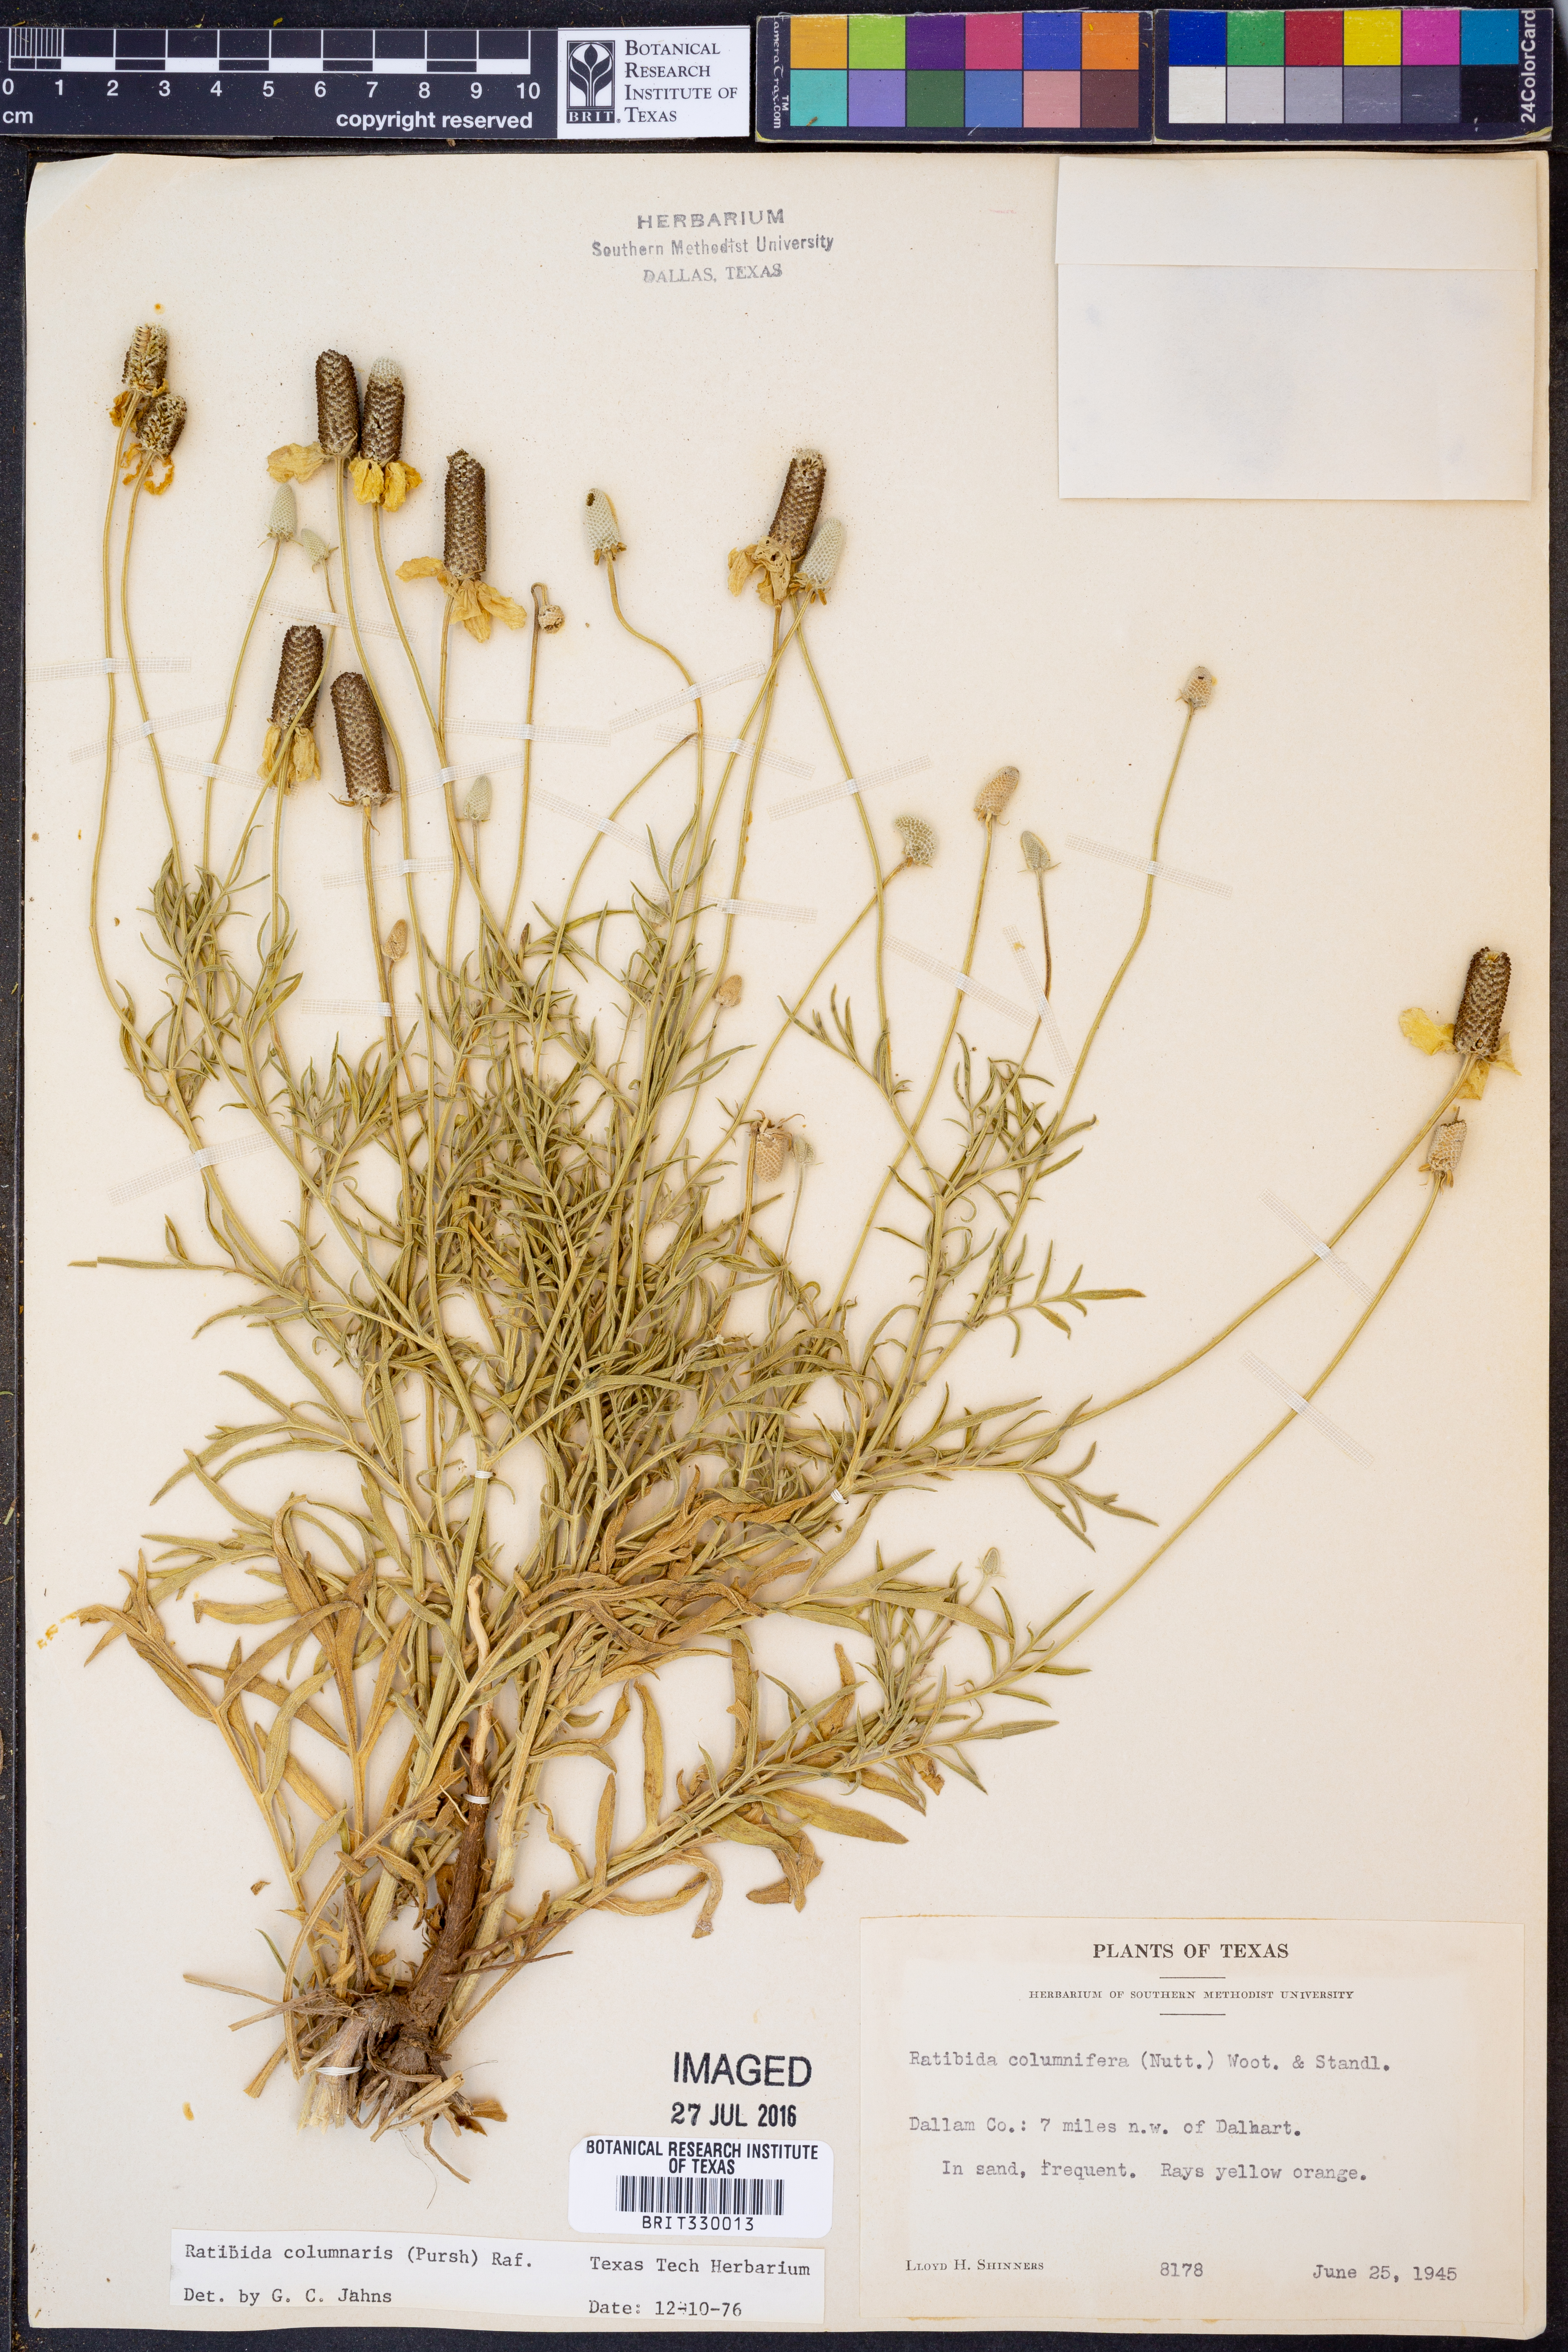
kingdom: Plantae
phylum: Tracheophyta
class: Magnoliopsida
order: Asterales
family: Asteraceae
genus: Ratibida
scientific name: Ratibida columnifera
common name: Prairie coneflower
